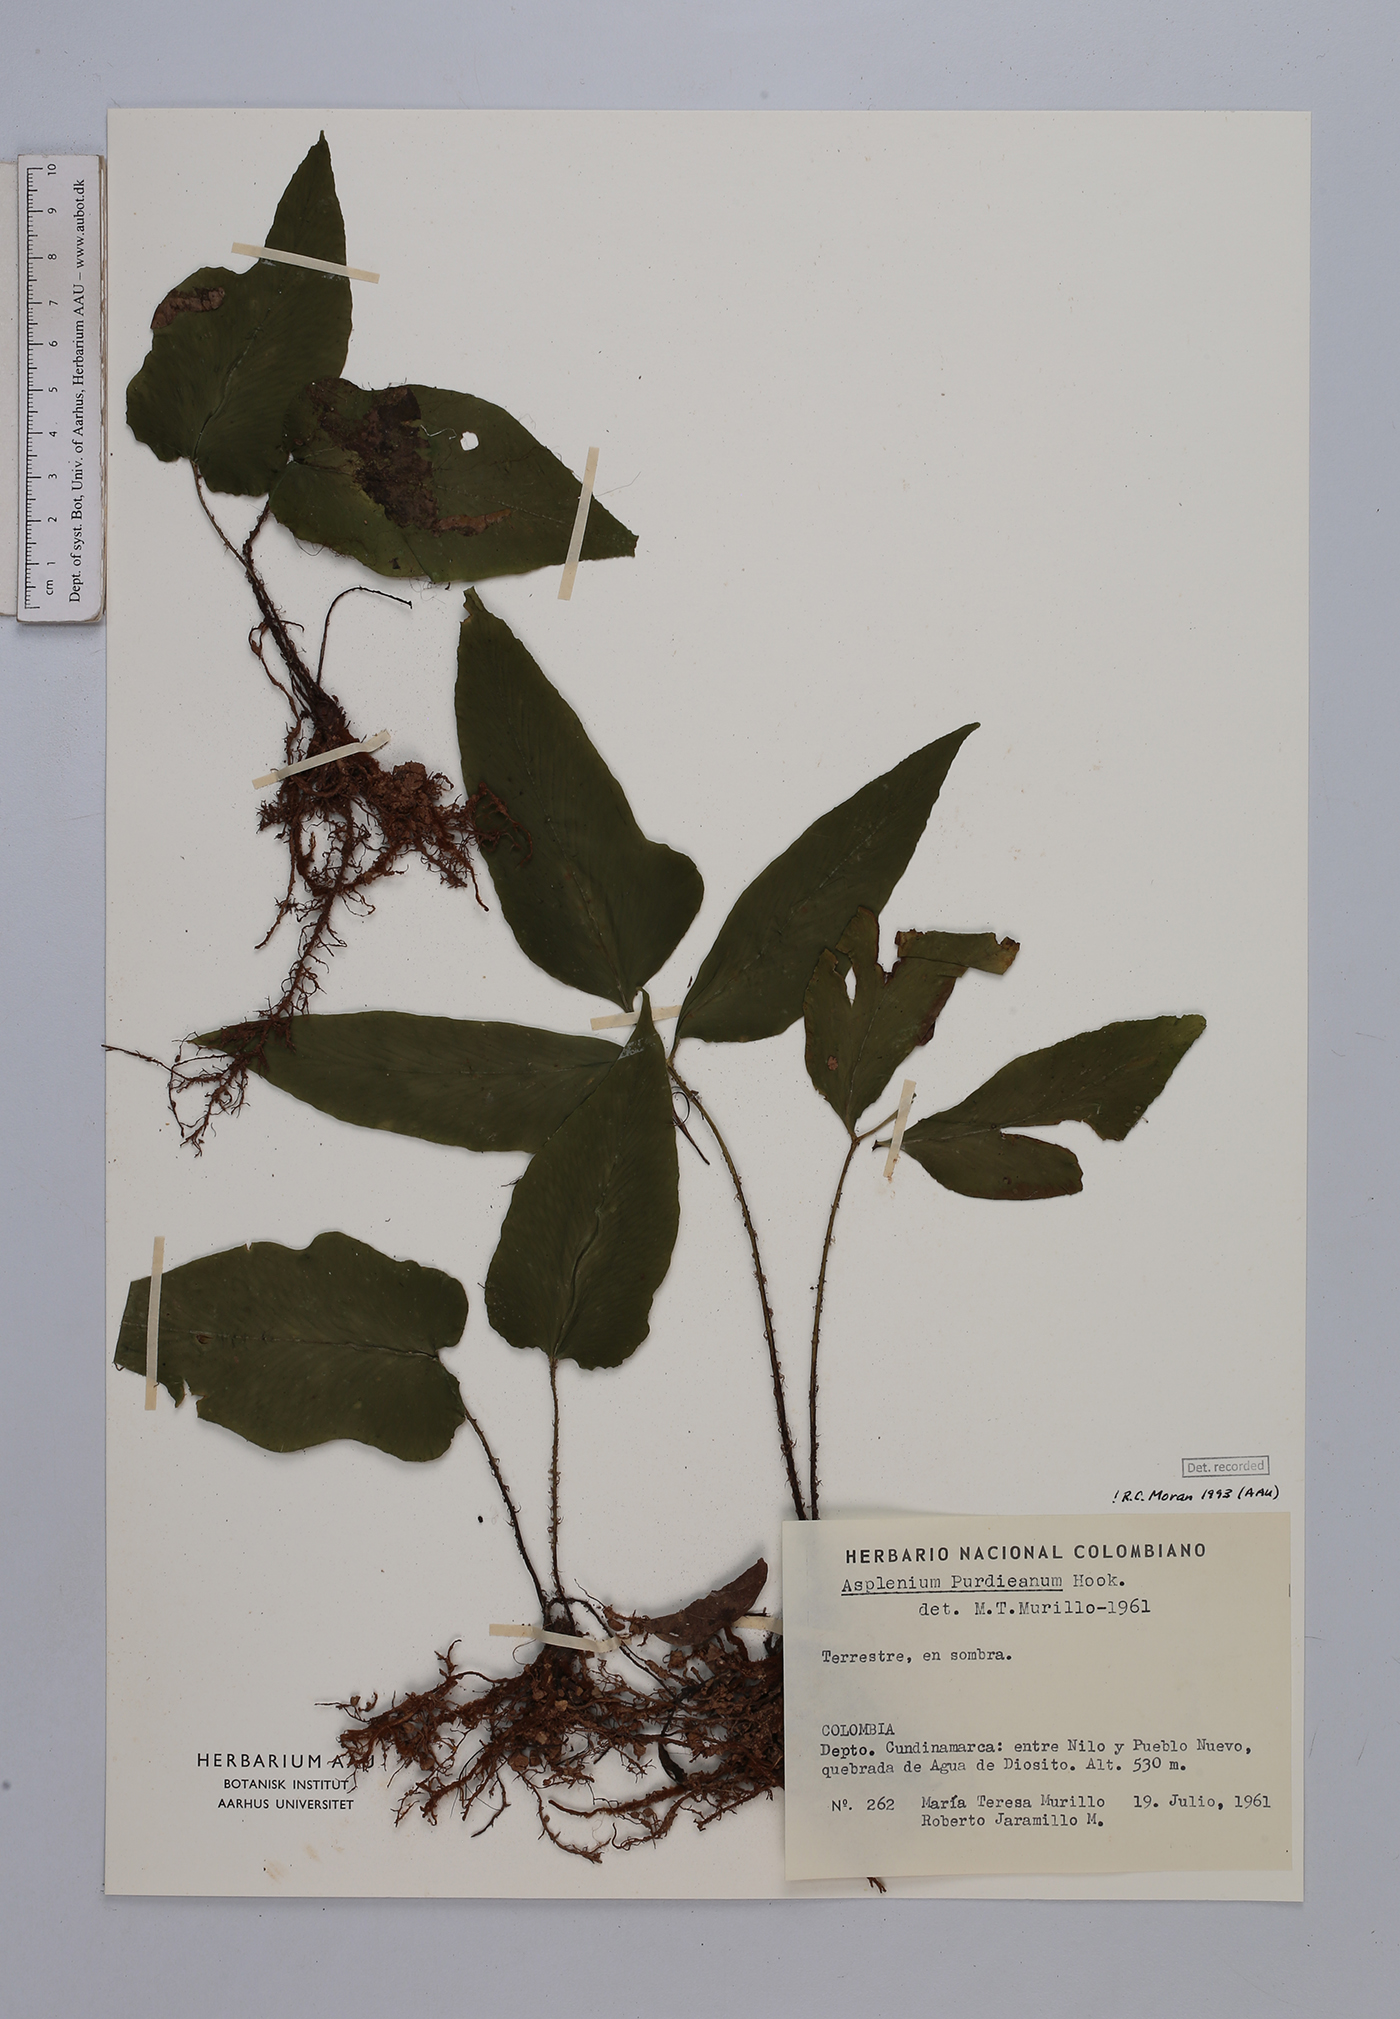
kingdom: Plantae
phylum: Tracheophyta
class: Polypodiopsida
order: Polypodiales
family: Aspleniaceae
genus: Asplenium
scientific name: Asplenium purdieanum
